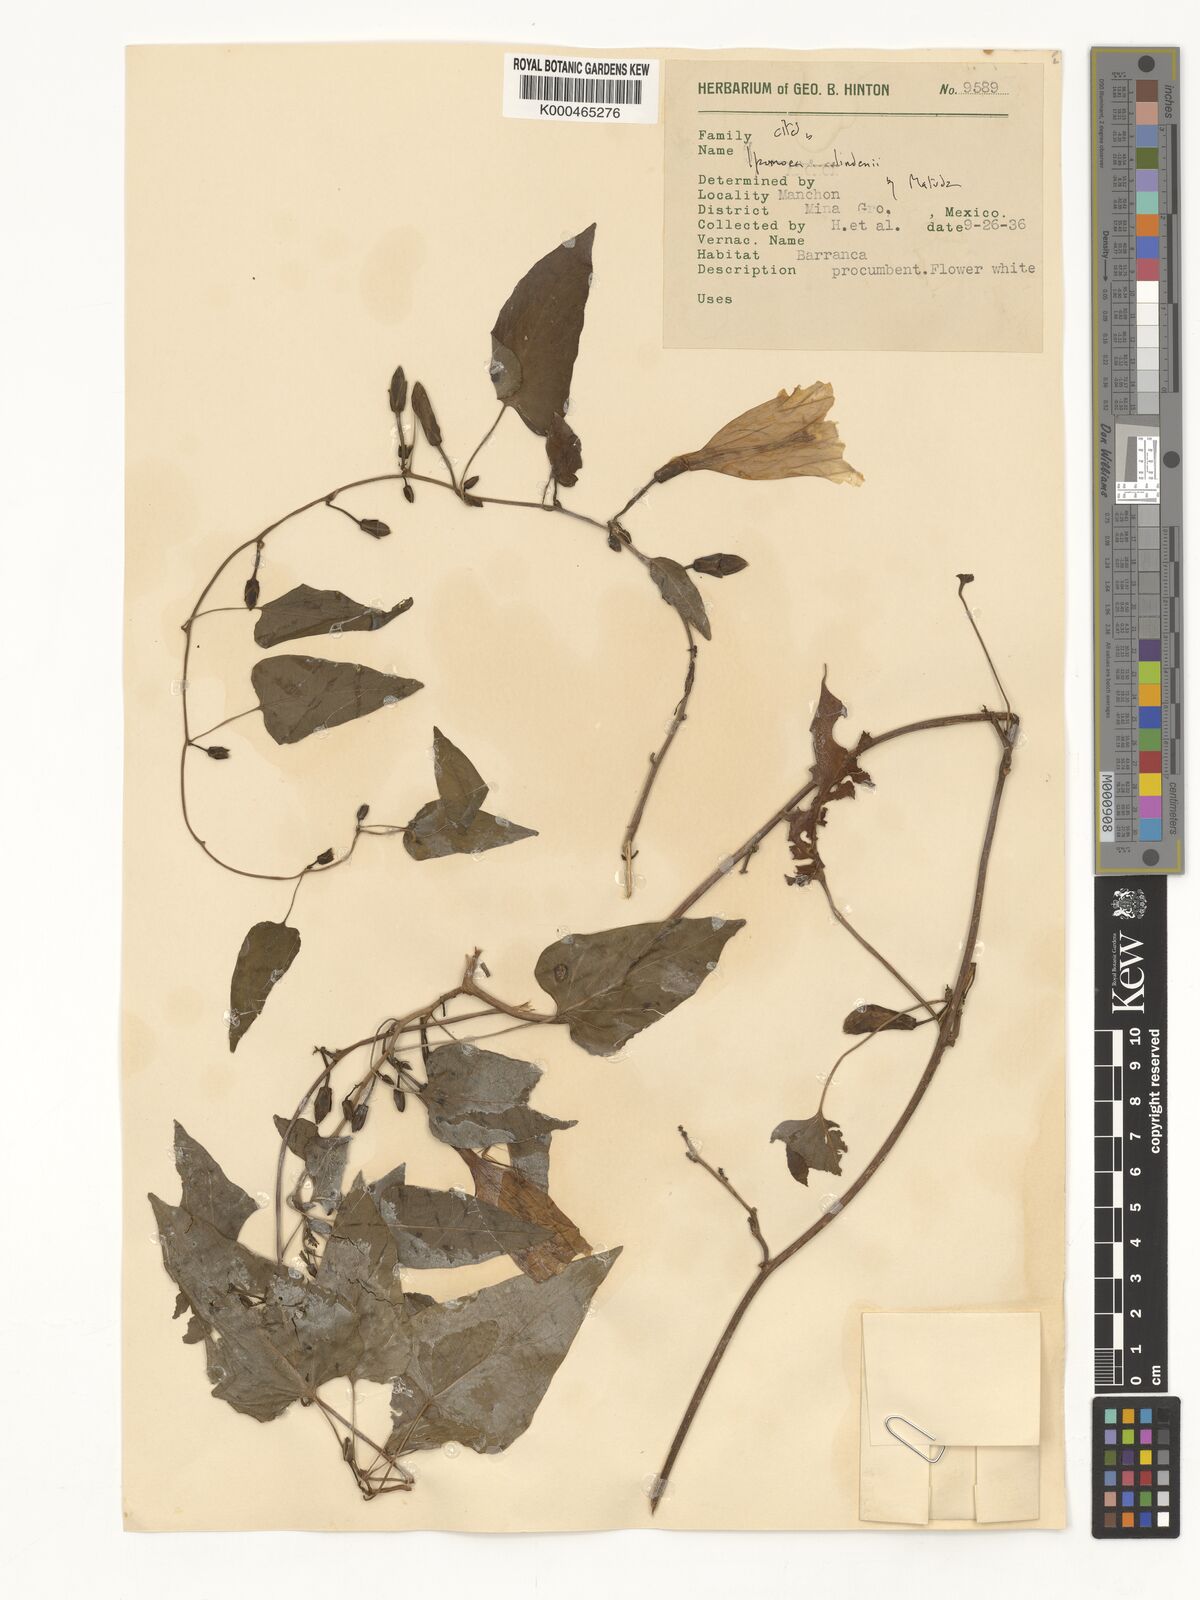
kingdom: Plantae
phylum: Tracheophyta
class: Magnoliopsida
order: Solanales
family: Convolvulaceae
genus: Ipomoea
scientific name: Ipomoea lindenii
